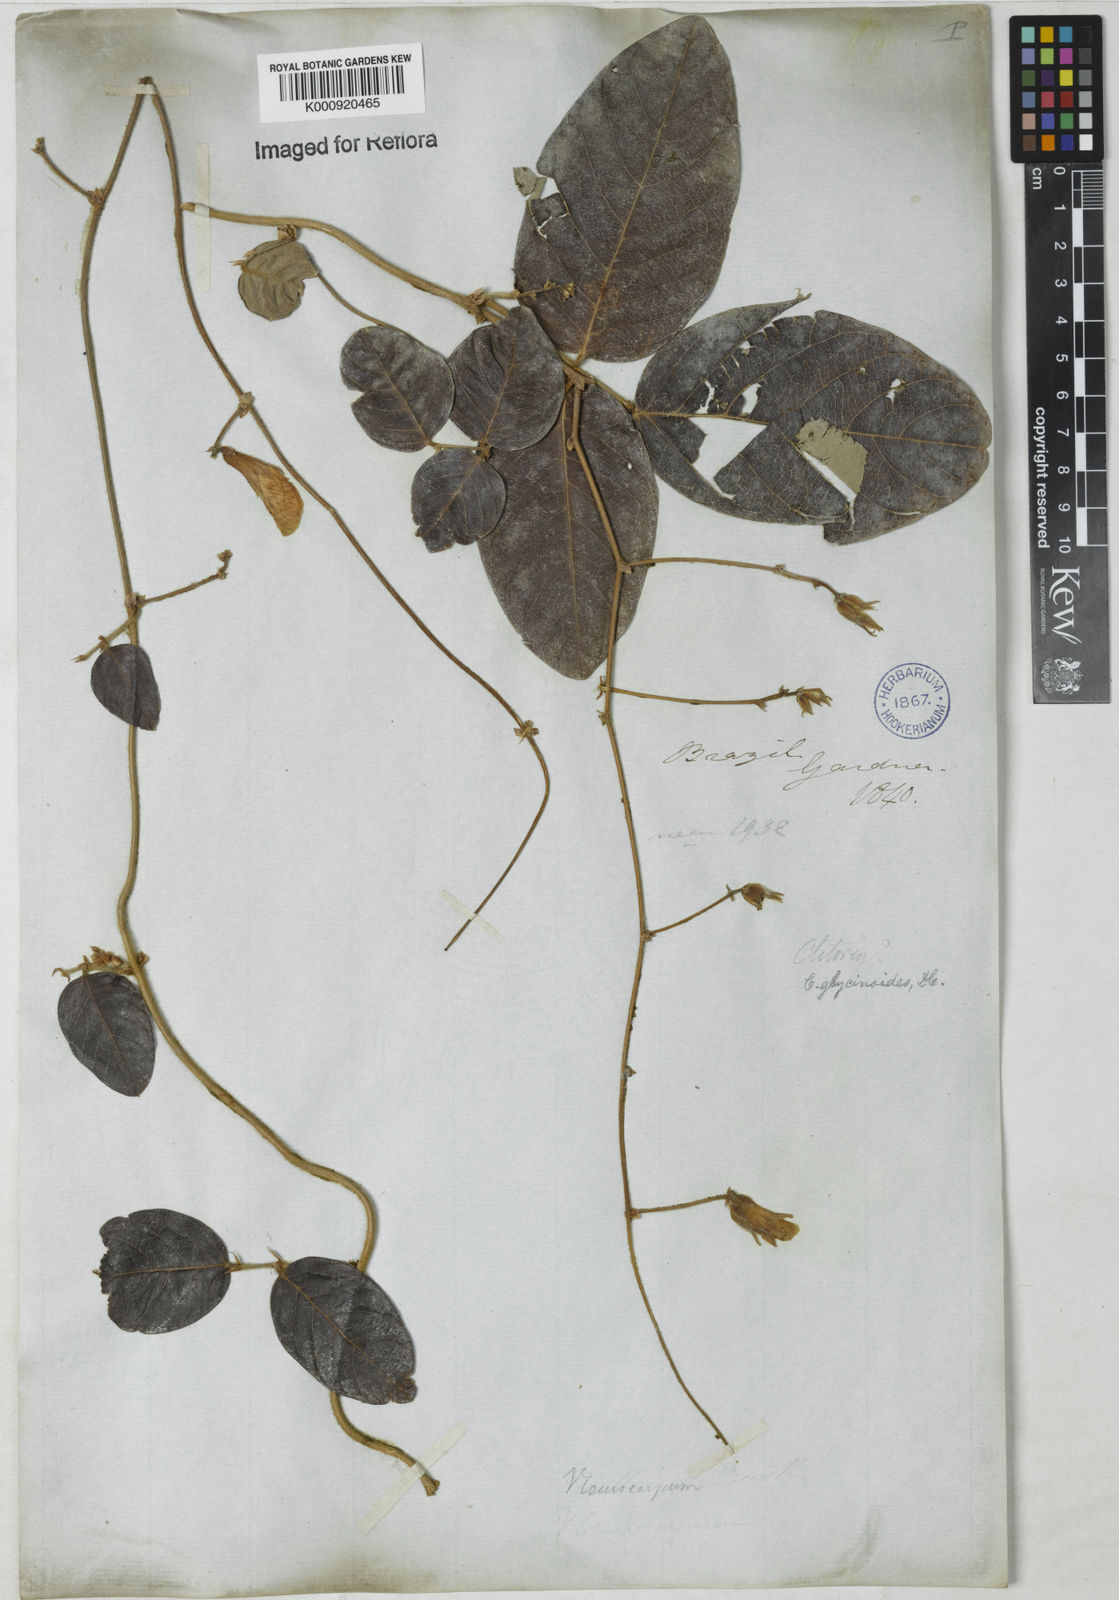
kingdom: Plantae
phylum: Tracheophyta
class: Magnoliopsida
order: Fabales
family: Fabaceae
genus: Clitoria
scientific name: Clitoria
